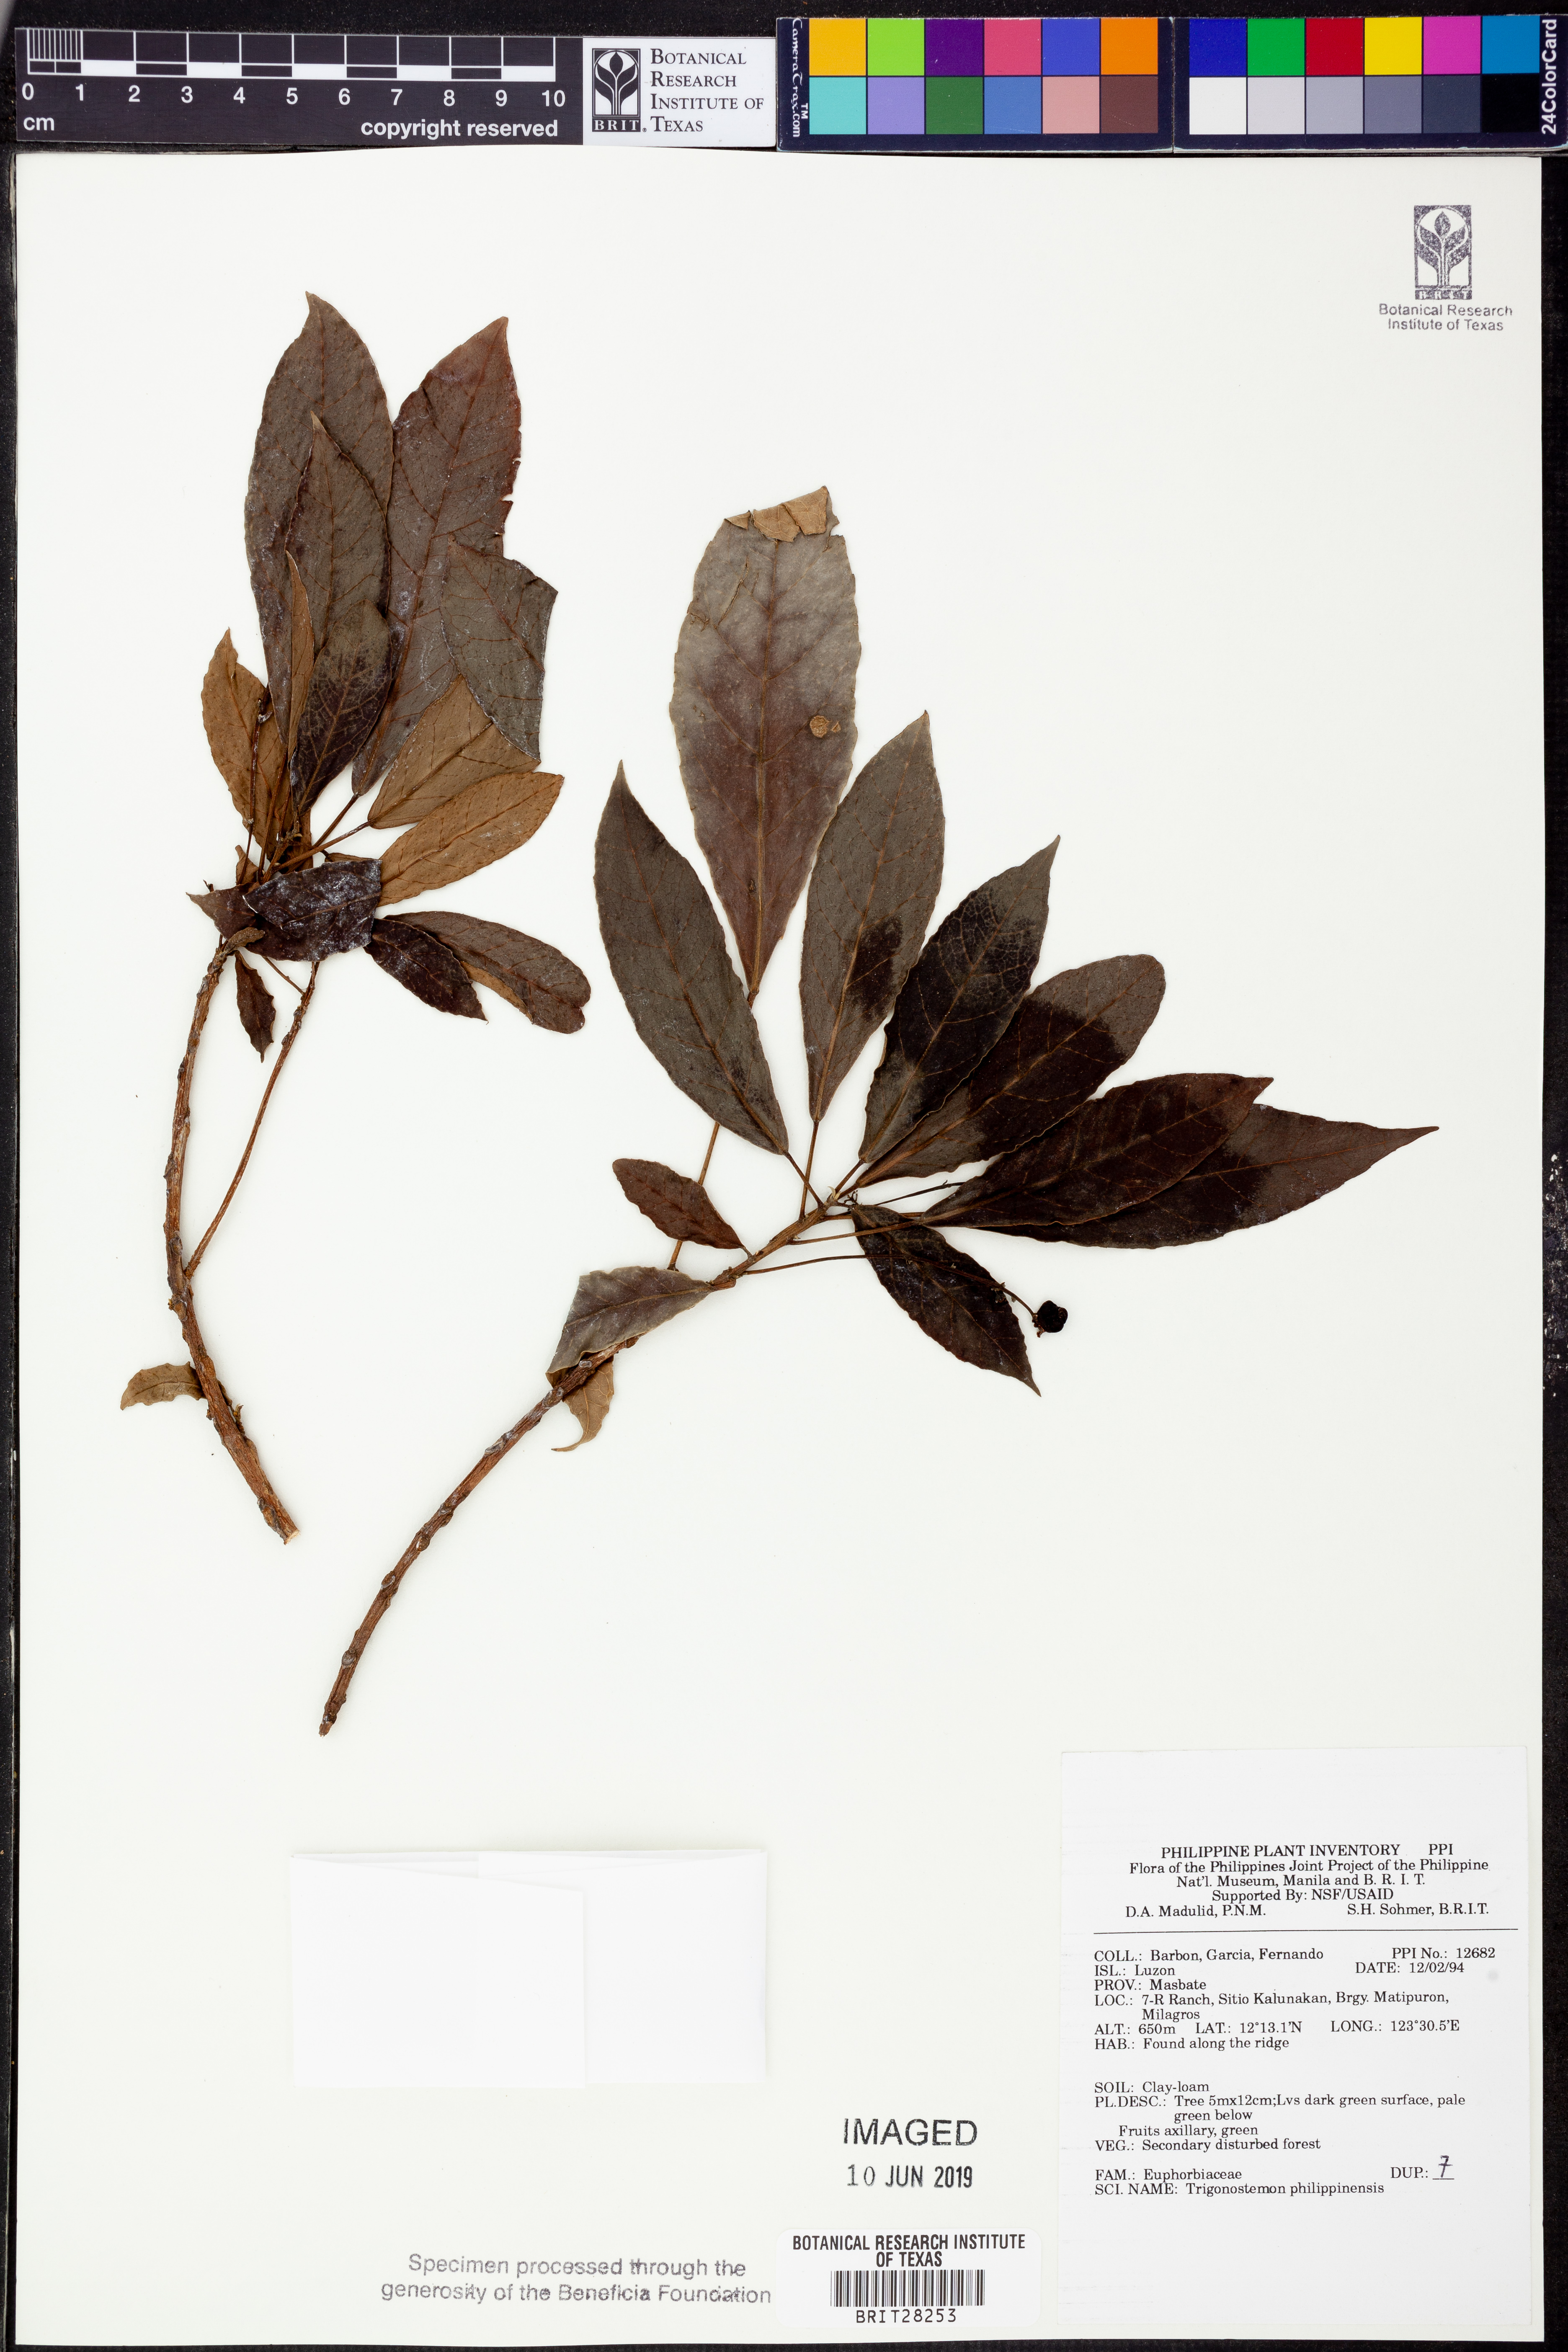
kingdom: Plantae
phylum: Tracheophyta
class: Magnoliopsida
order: Malpighiales
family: Euphorbiaceae
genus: Trigonostemon
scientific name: Trigonostemon philippinensis
